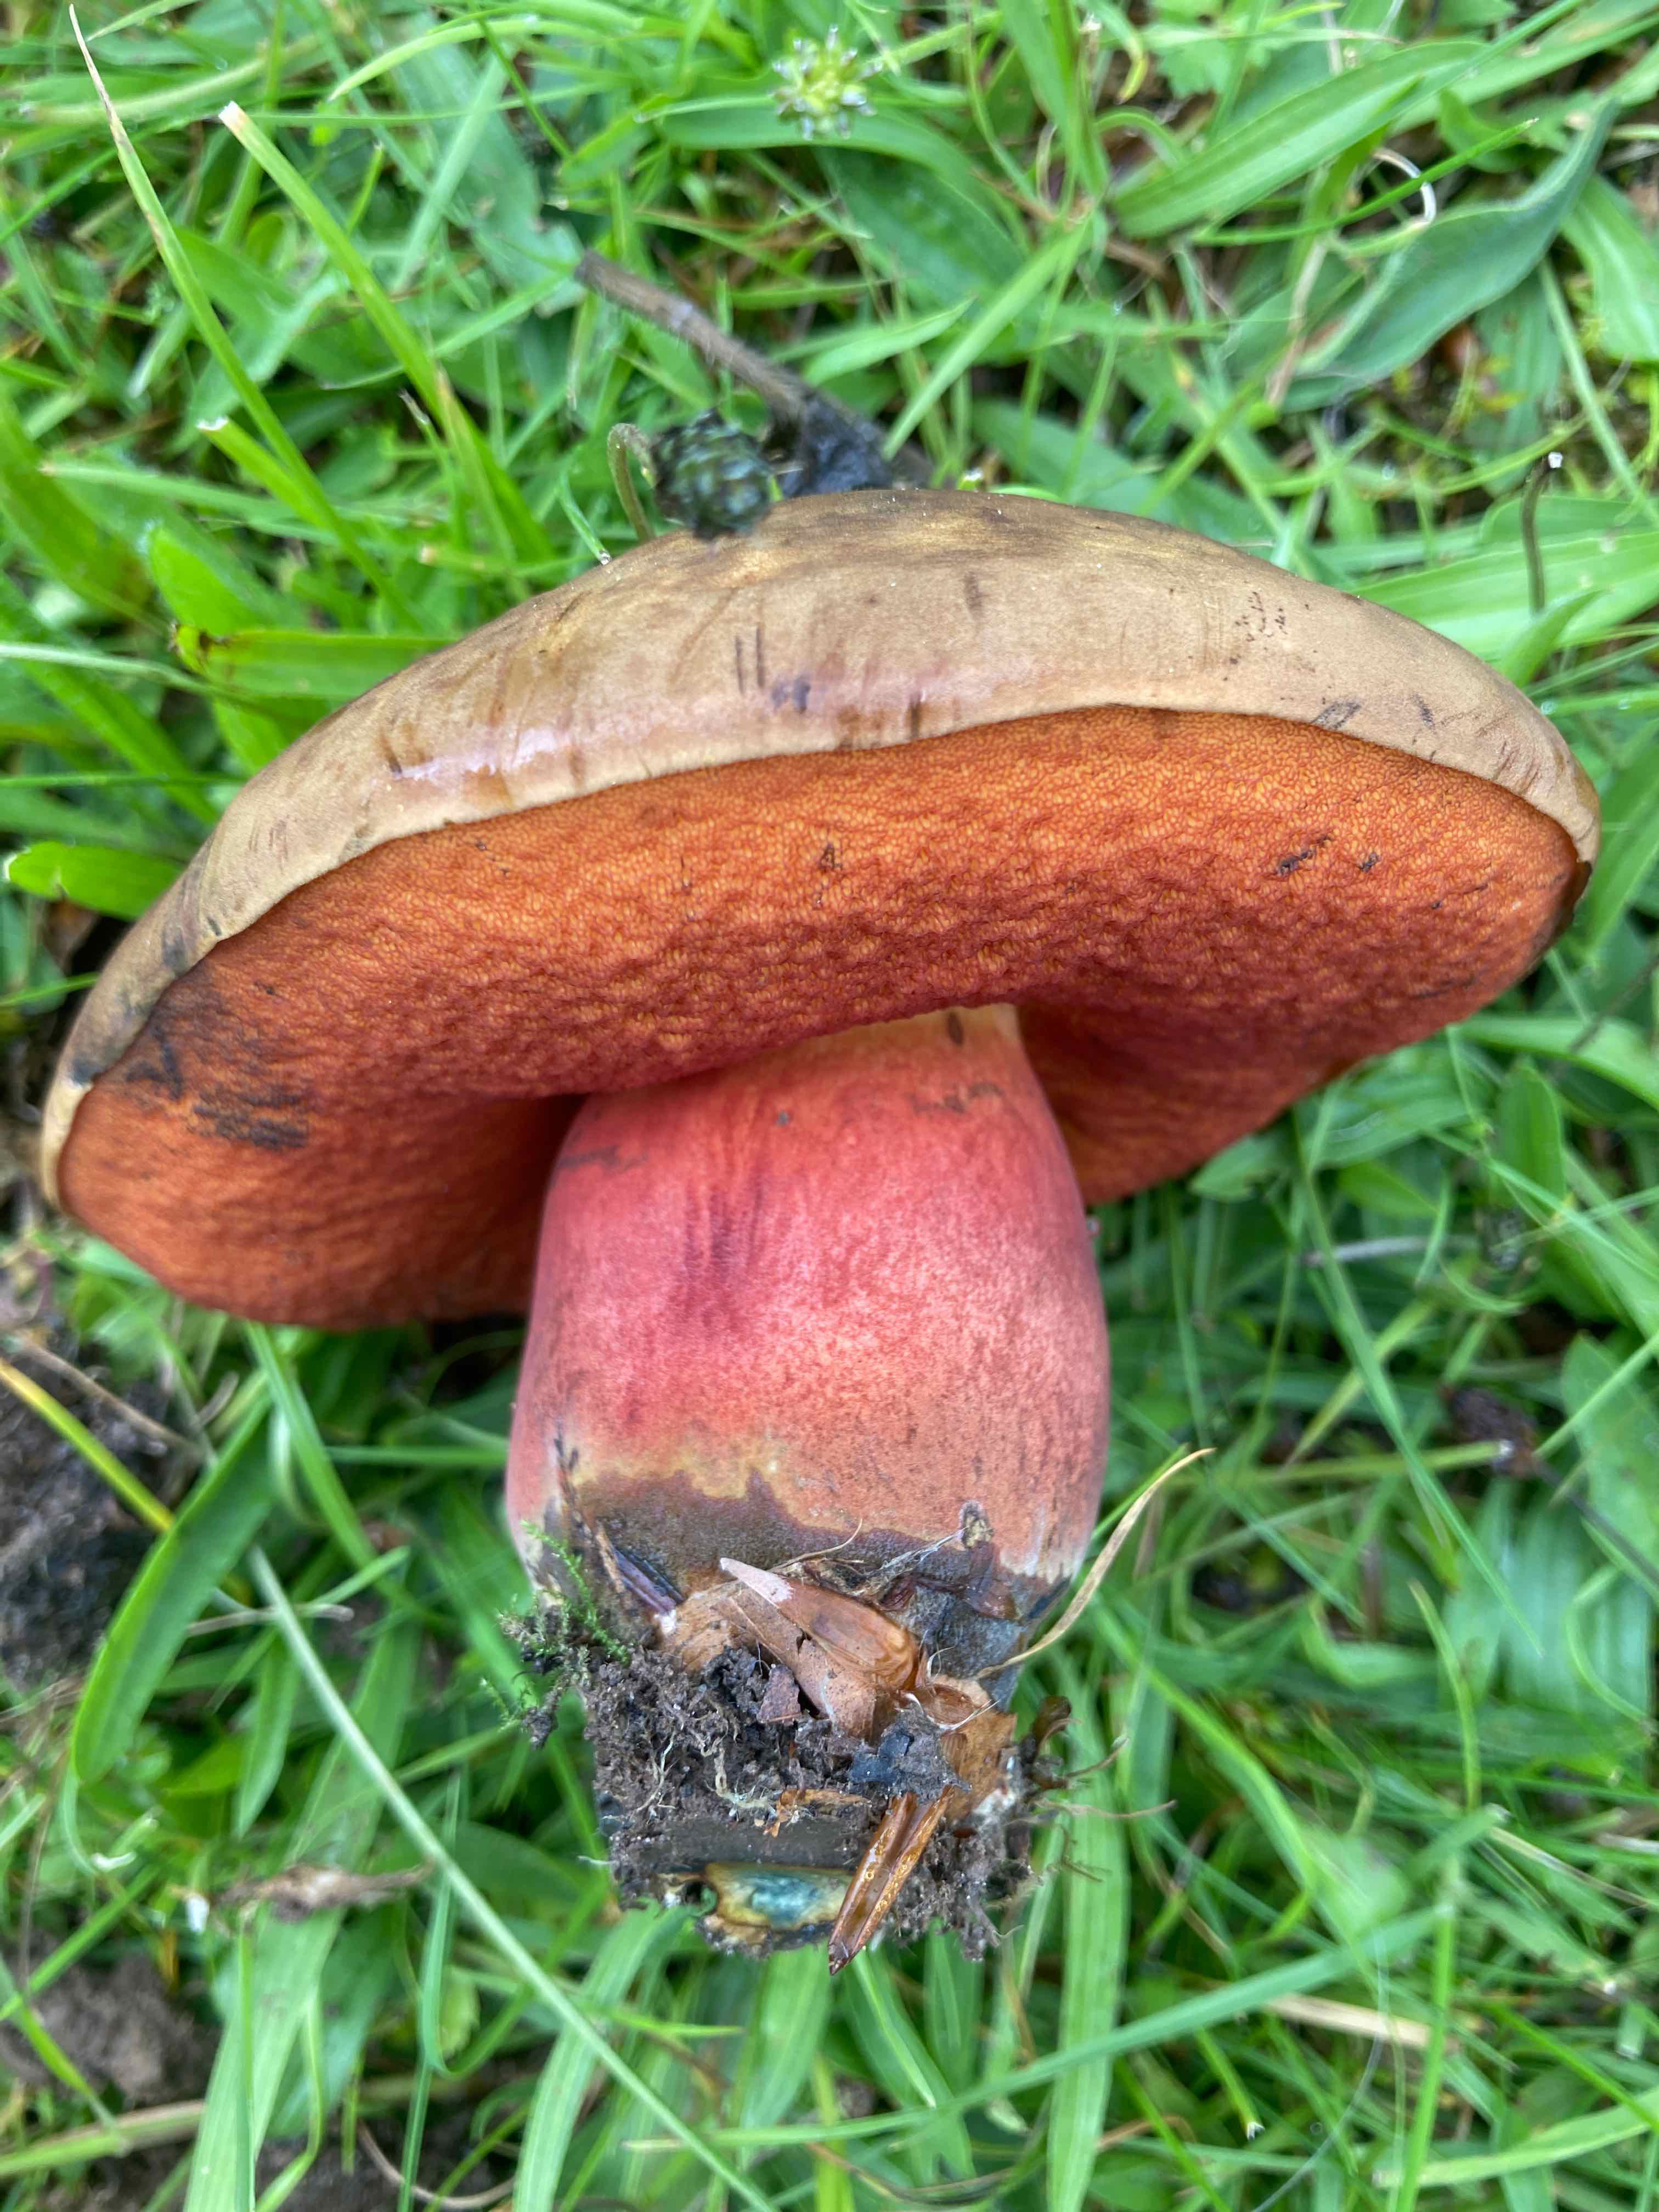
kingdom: Fungi
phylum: Basidiomycota
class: Agaricomycetes
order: Boletales
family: Boletaceae
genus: Neoboletus
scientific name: Neoboletus erythropus
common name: punktstokket indigorørhat
